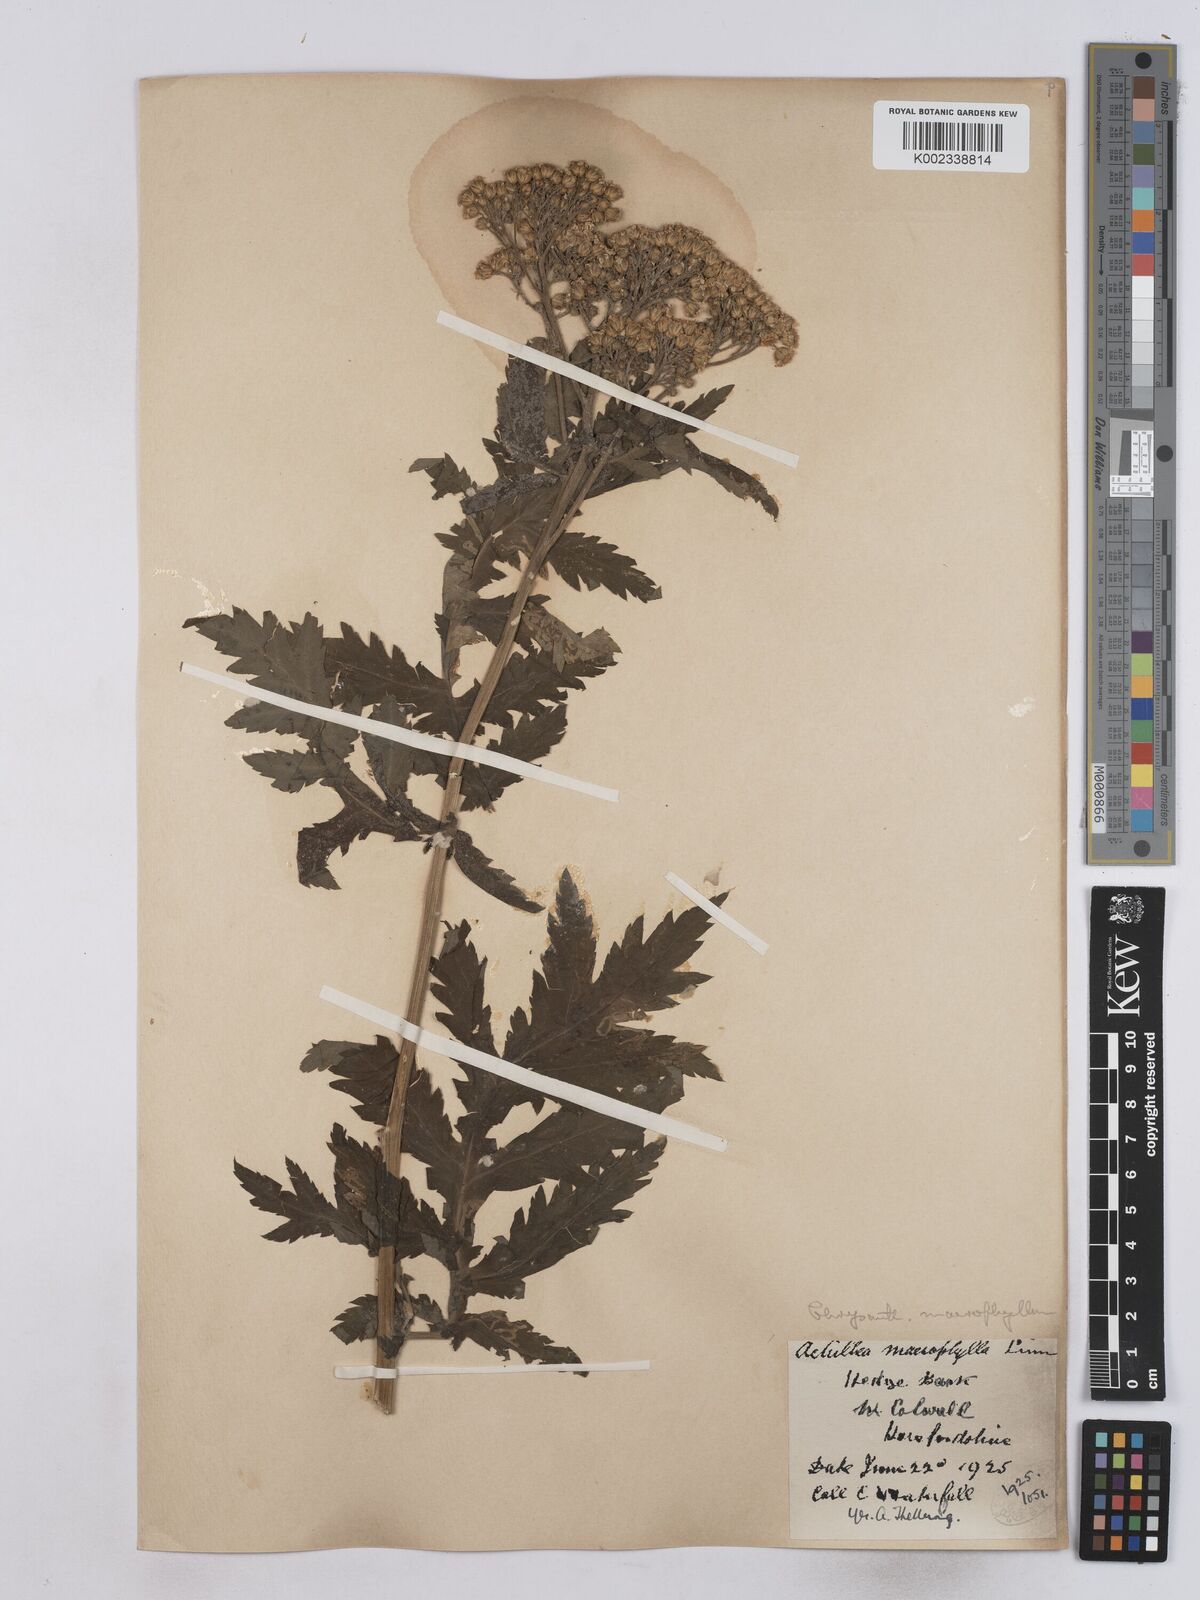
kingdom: Plantae
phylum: Tracheophyta
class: Magnoliopsida
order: Asterales
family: Asteraceae
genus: Tanacetum
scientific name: Tanacetum macrophyllum
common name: Rayed tansy
